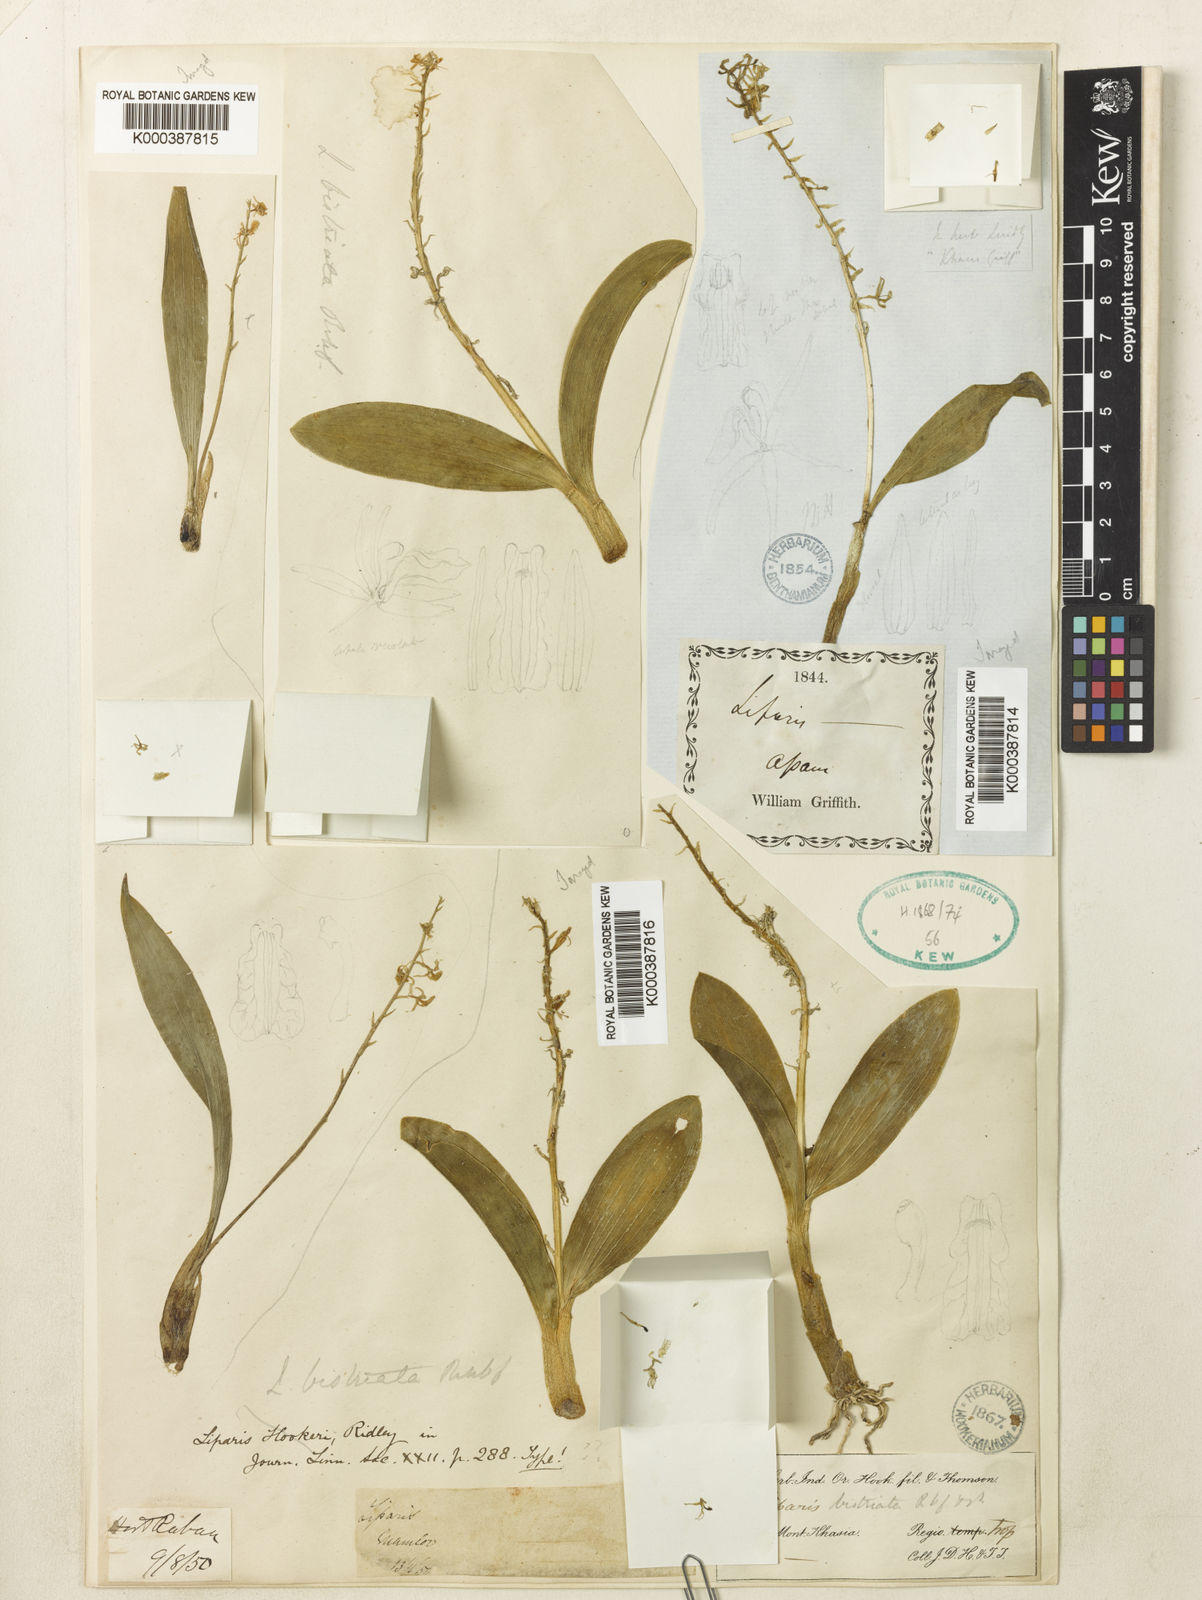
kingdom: Plantae
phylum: Tracheophyta
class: Liliopsida
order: Asparagales
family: Orchidaceae
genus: Liparis
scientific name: Liparis bistriata
